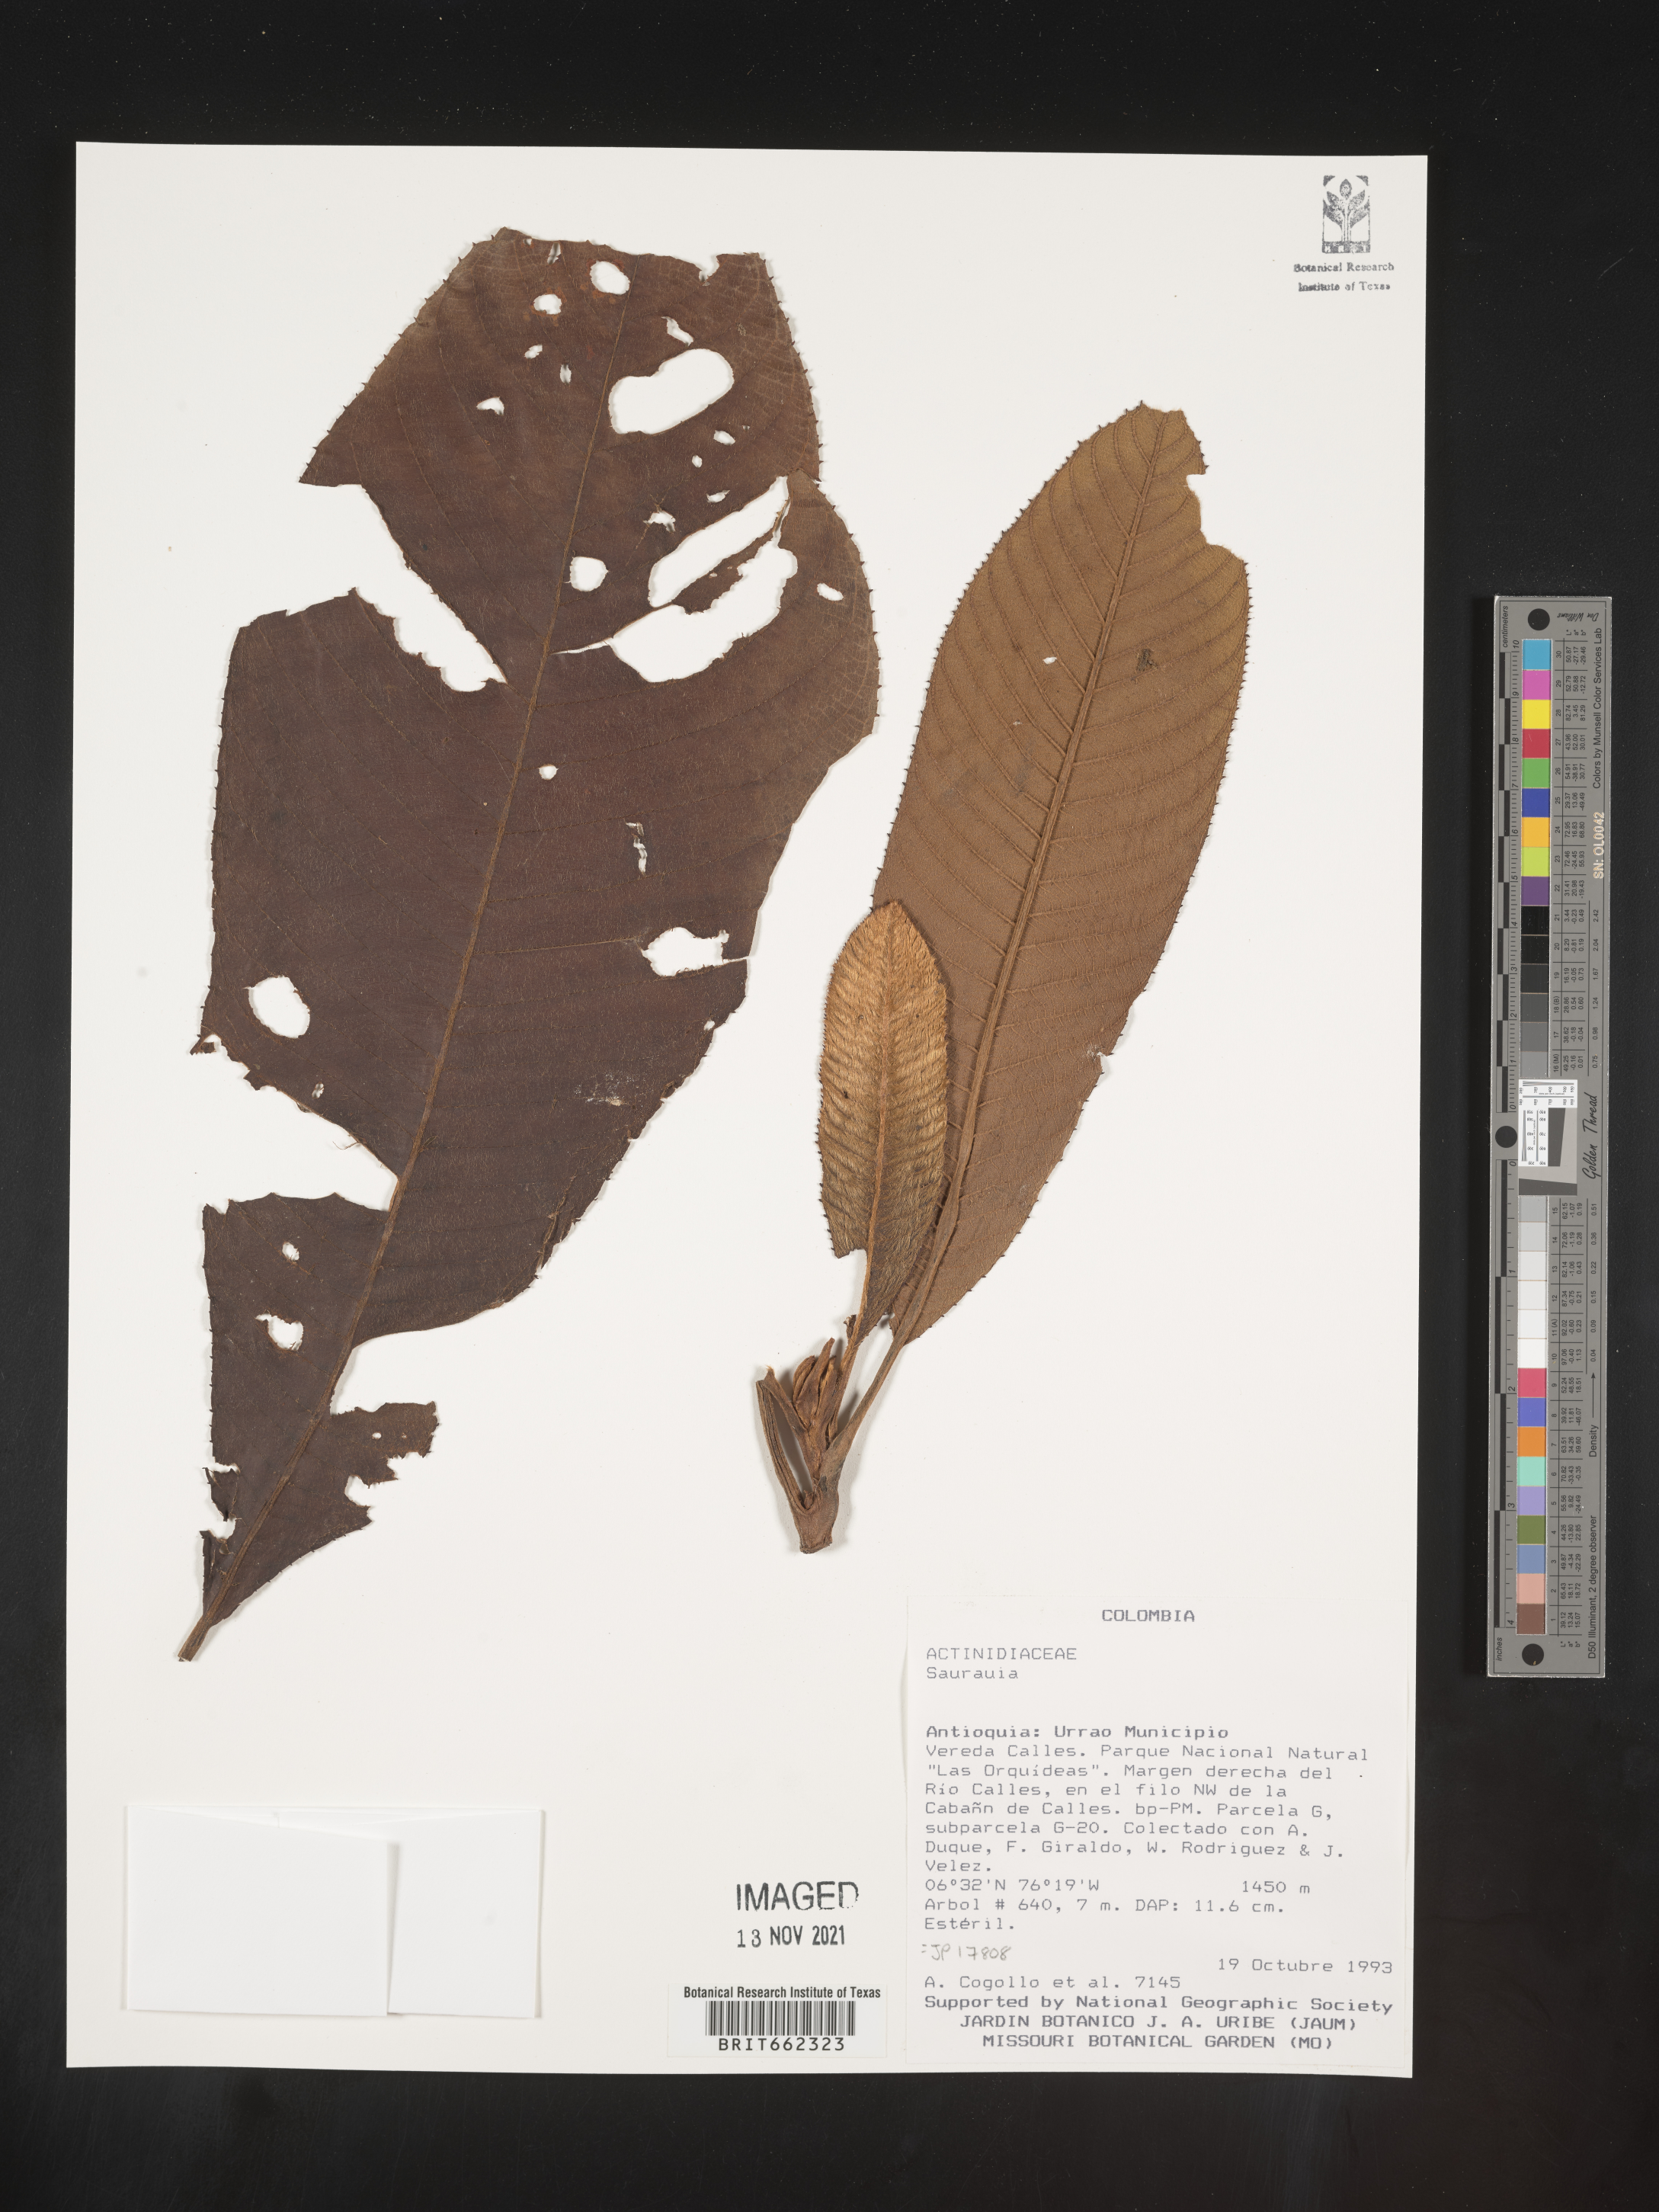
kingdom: Plantae
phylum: Tracheophyta
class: Magnoliopsida
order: Ericales
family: Actinidiaceae
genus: Saurauia
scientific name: Saurauia
